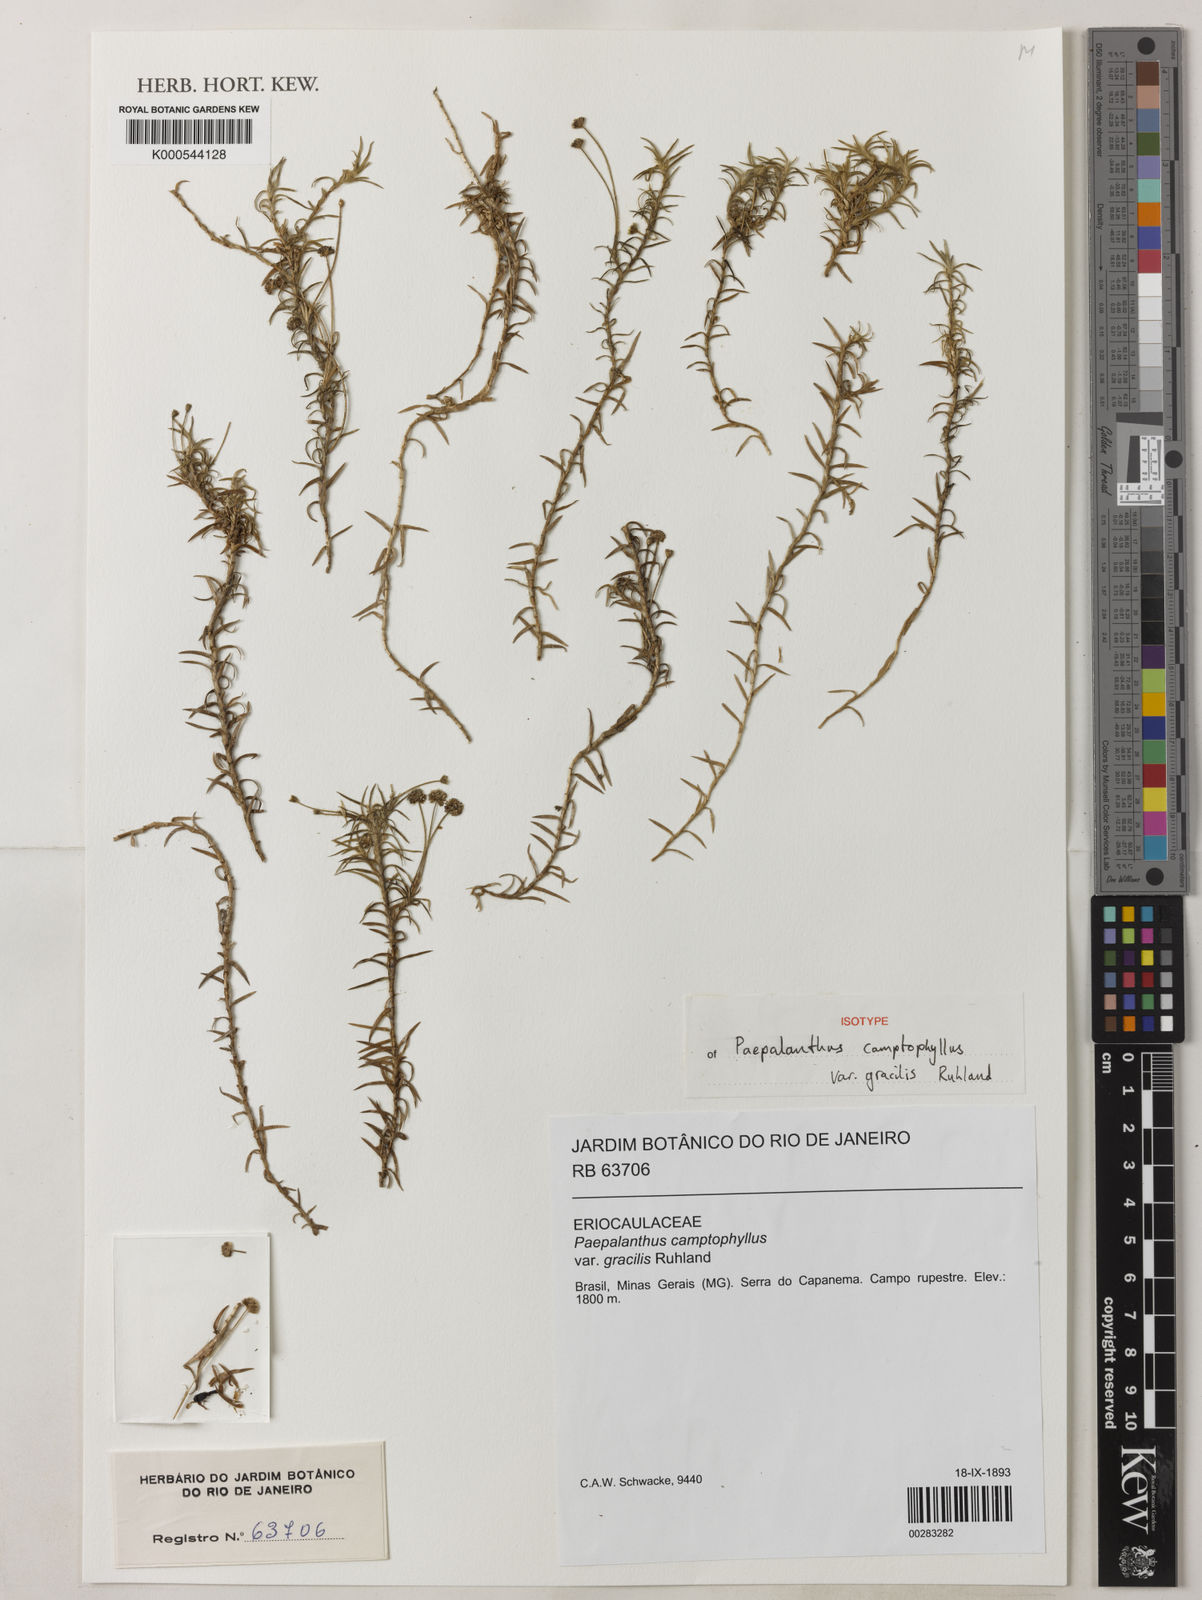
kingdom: Plantae
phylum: Tracheophyta
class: Liliopsida
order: Poales
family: Eriocaulaceae
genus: Paepalanthus
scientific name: Paepalanthus camptophyllus
